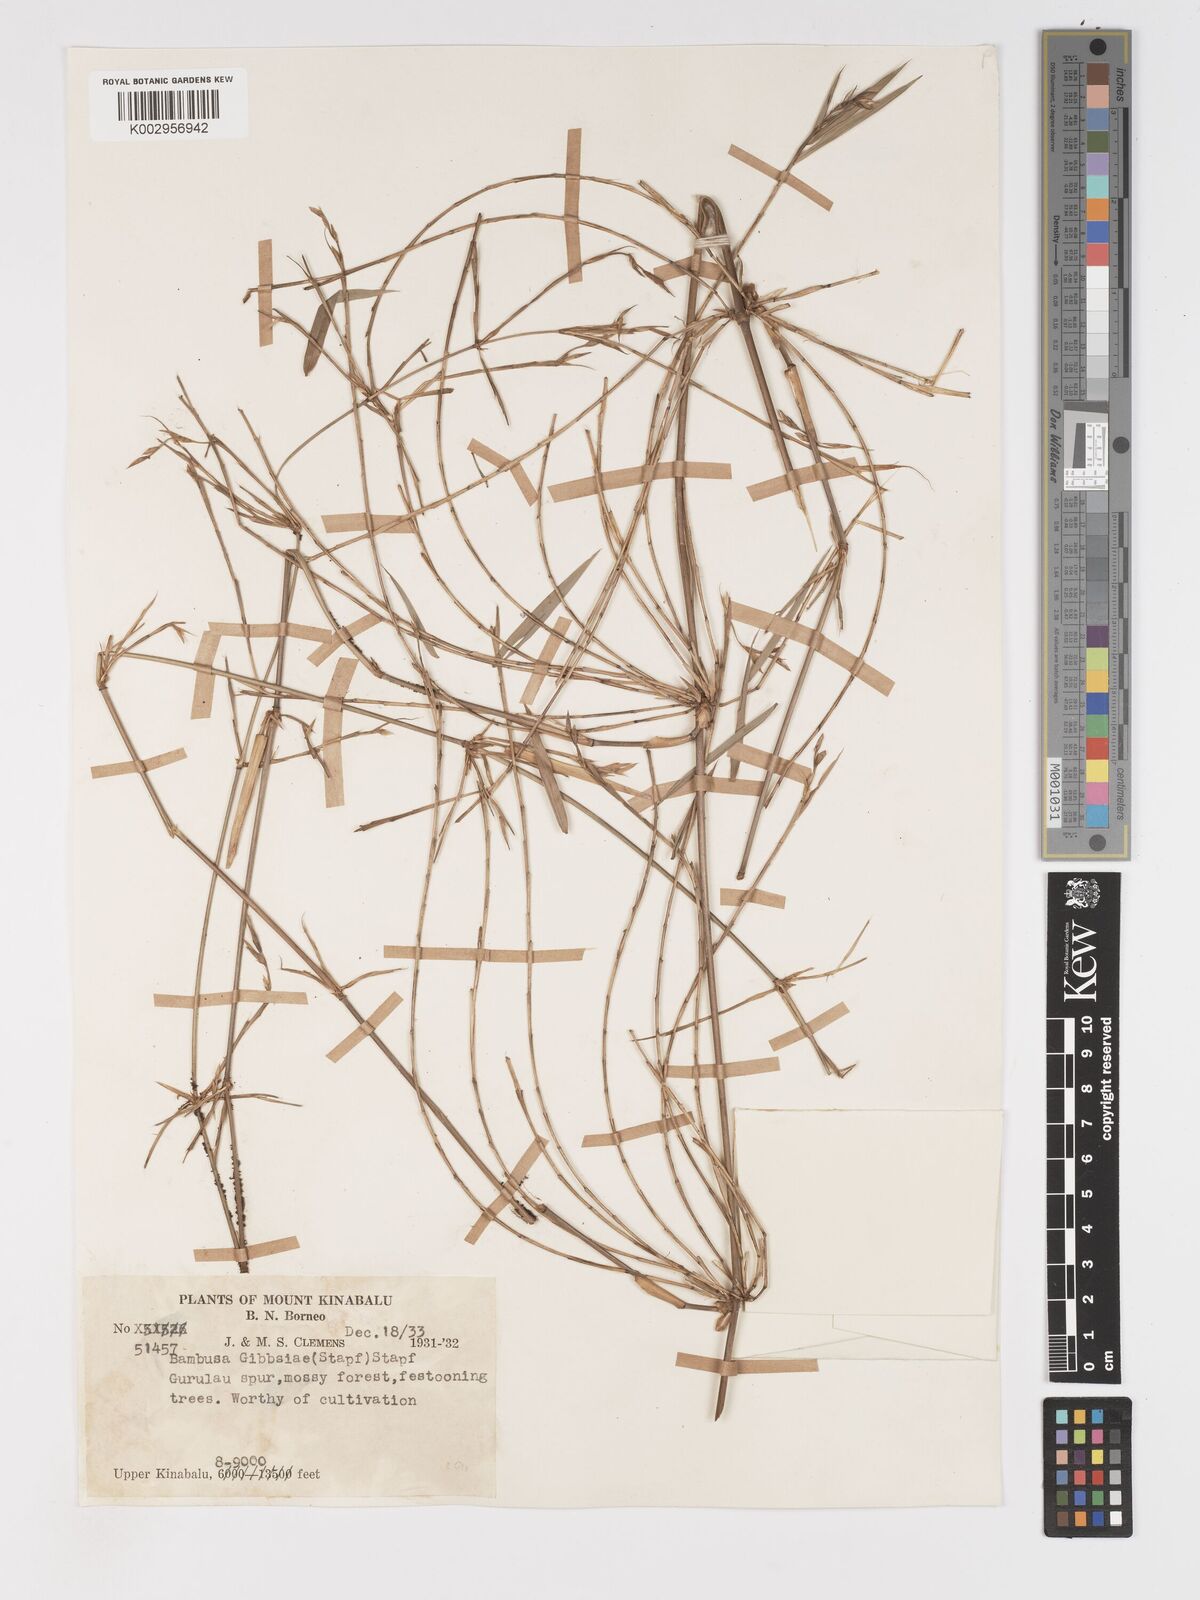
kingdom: Plantae
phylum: Tracheophyta
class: Liliopsida
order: Poales
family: Poaceae
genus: Racemobambos
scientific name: Racemobambos gibbsiae
